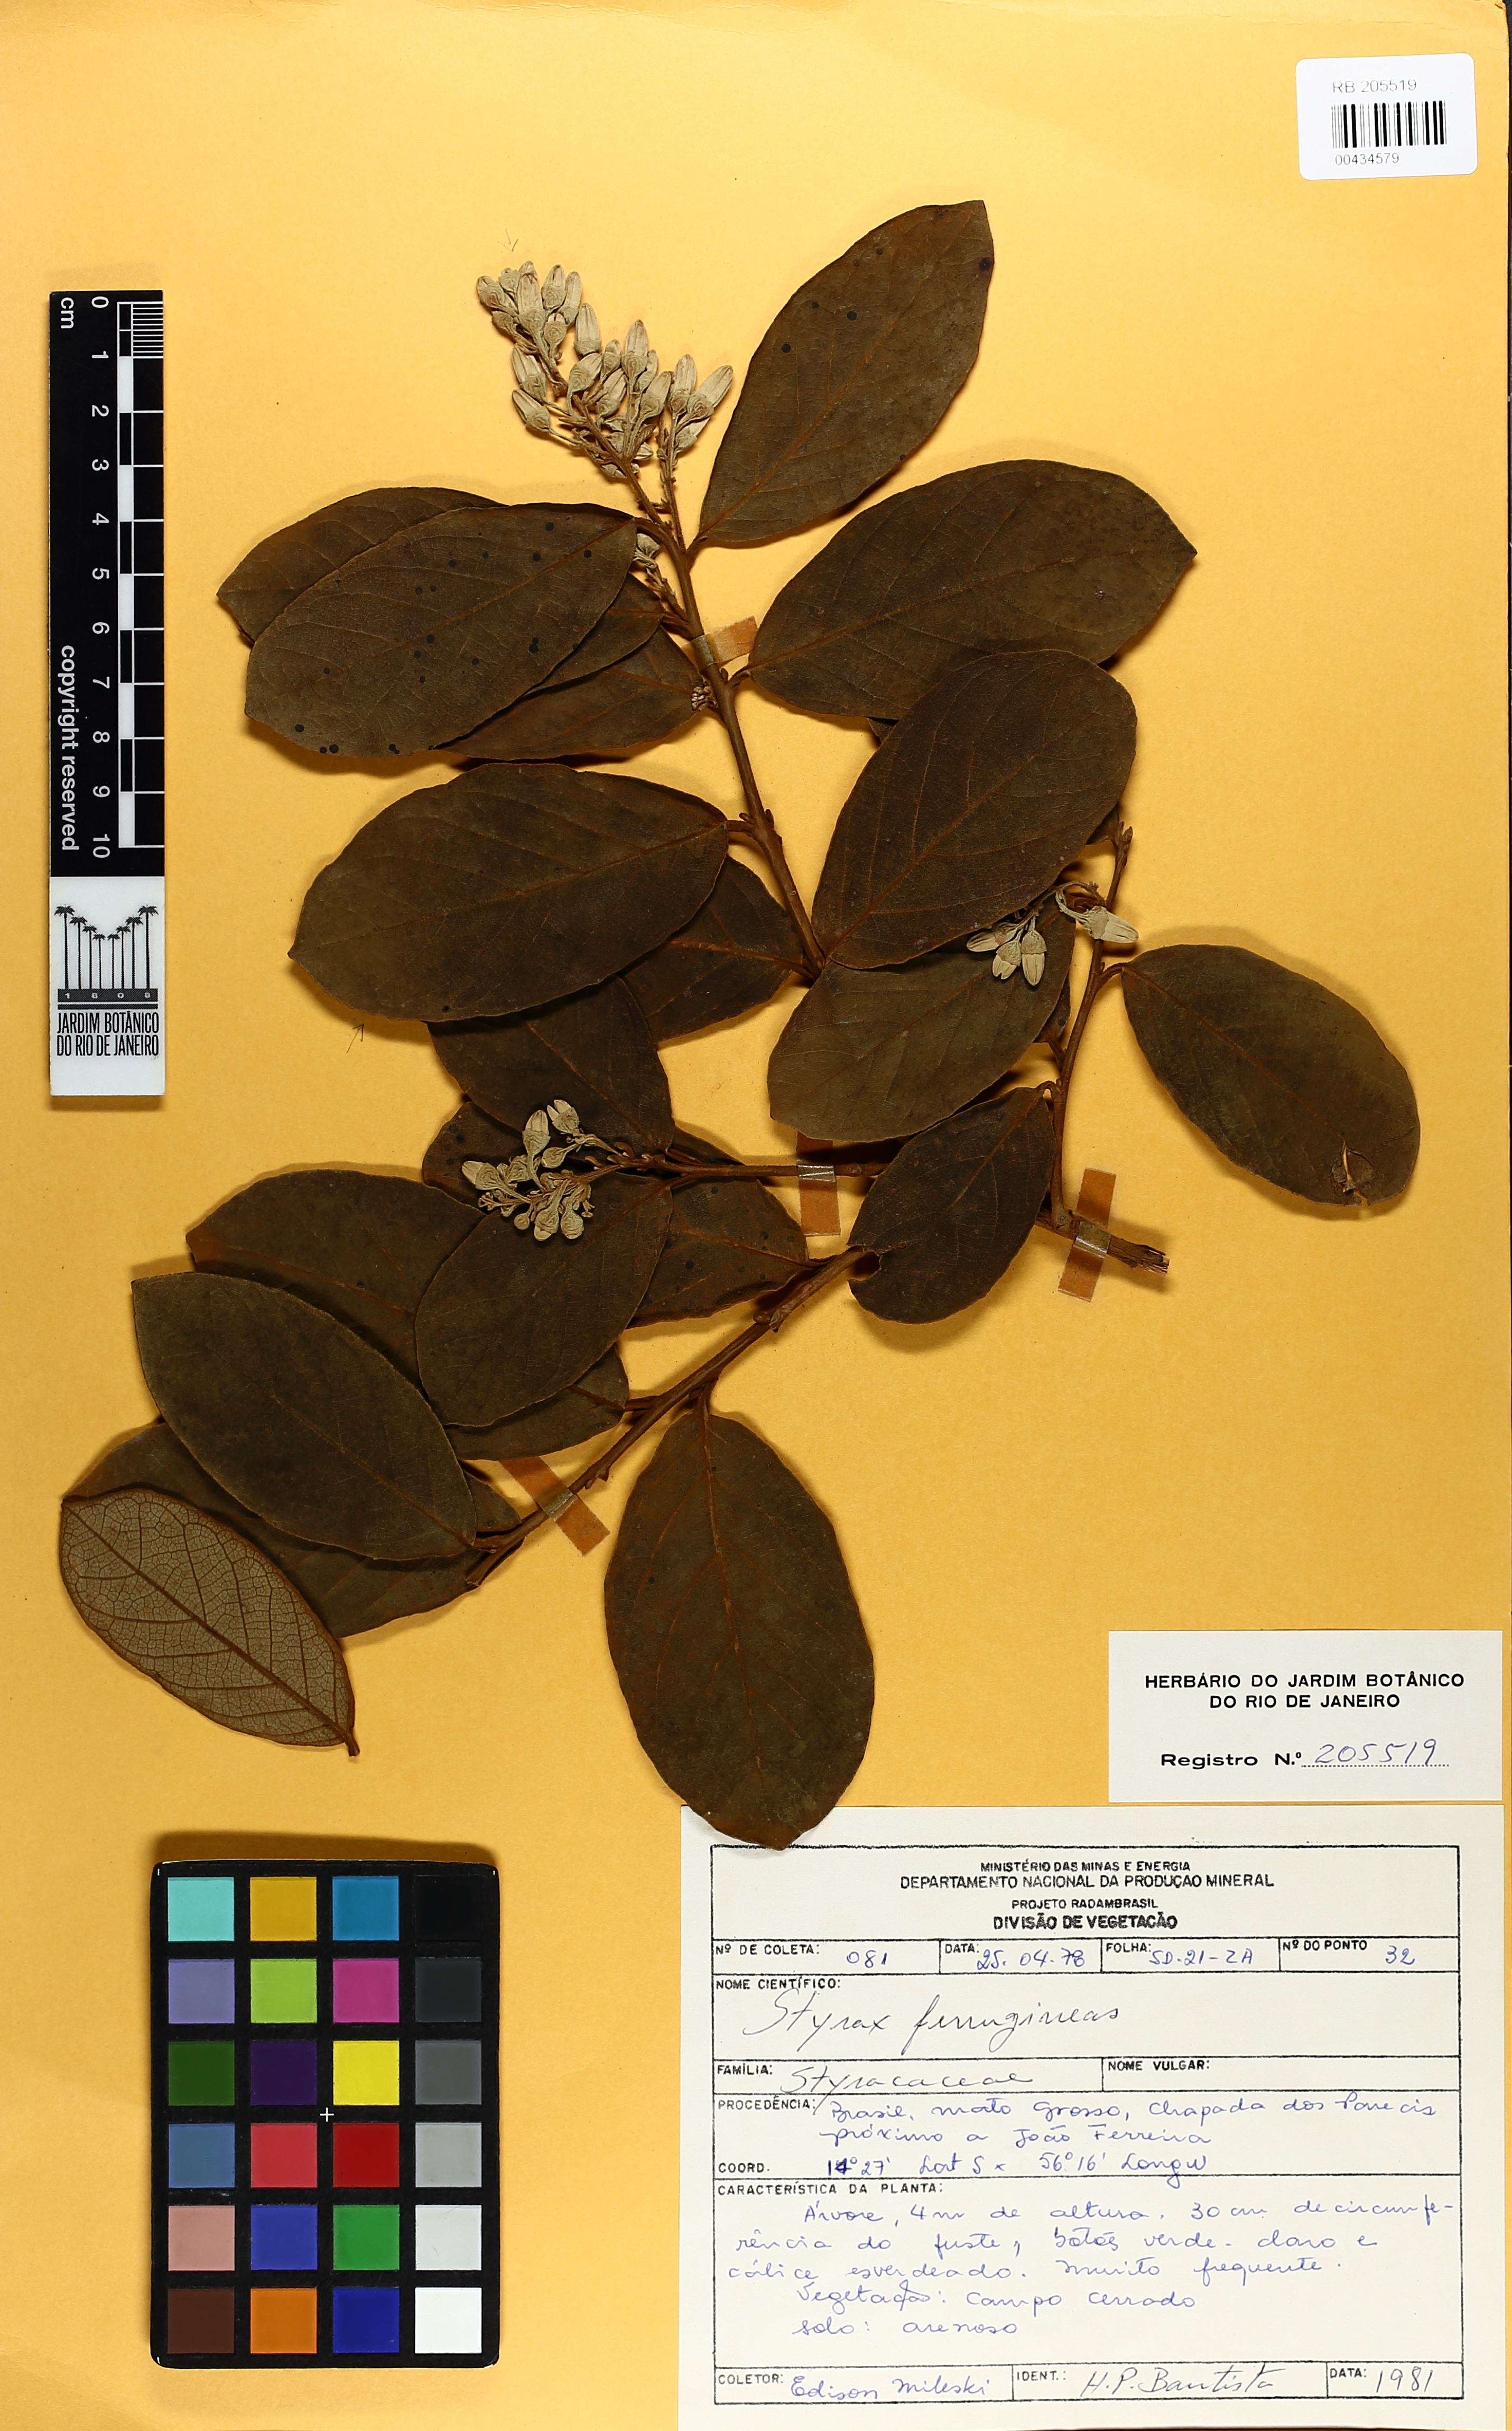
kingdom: Plantae
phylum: Tracheophyta
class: Magnoliopsida
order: Ericales
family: Styracaceae
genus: Styrax
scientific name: Styrax ferrugineus
